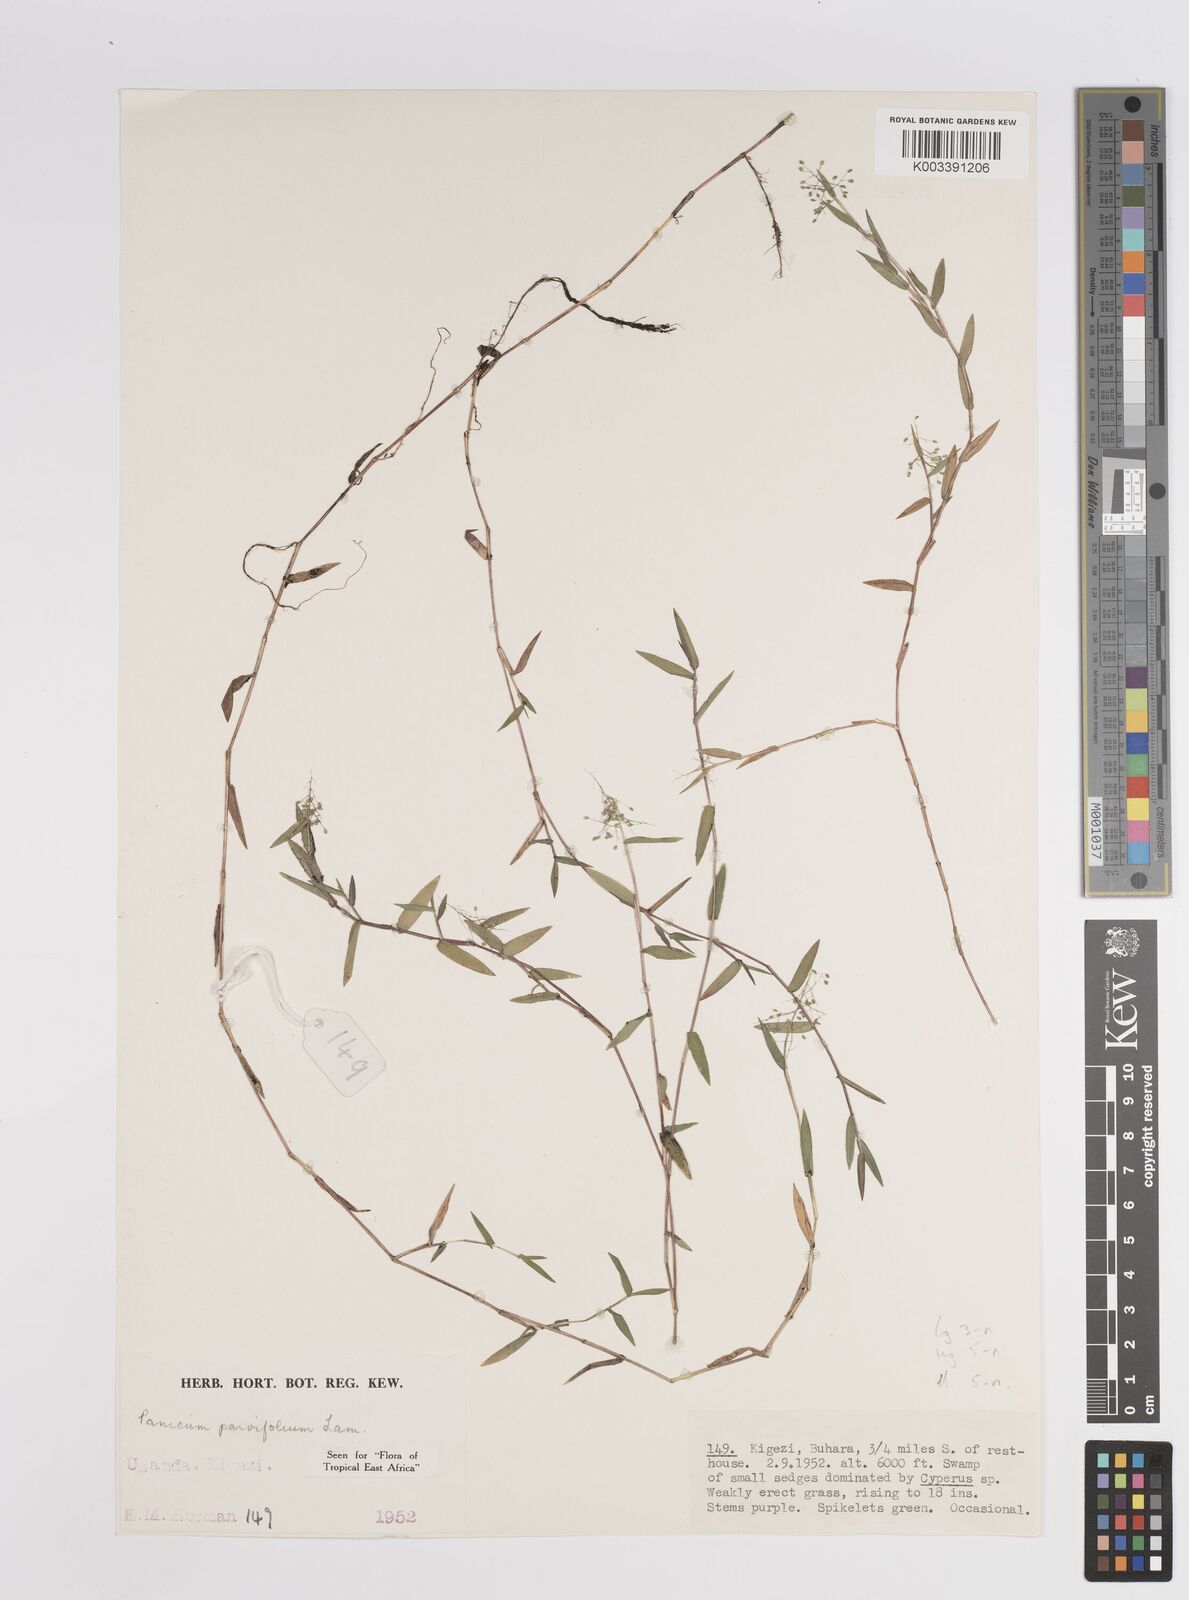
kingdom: Plantae
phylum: Tracheophyta
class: Liliopsida
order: Poales
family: Poaceae
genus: Trichanthecium
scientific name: Trichanthecium parvifolium
